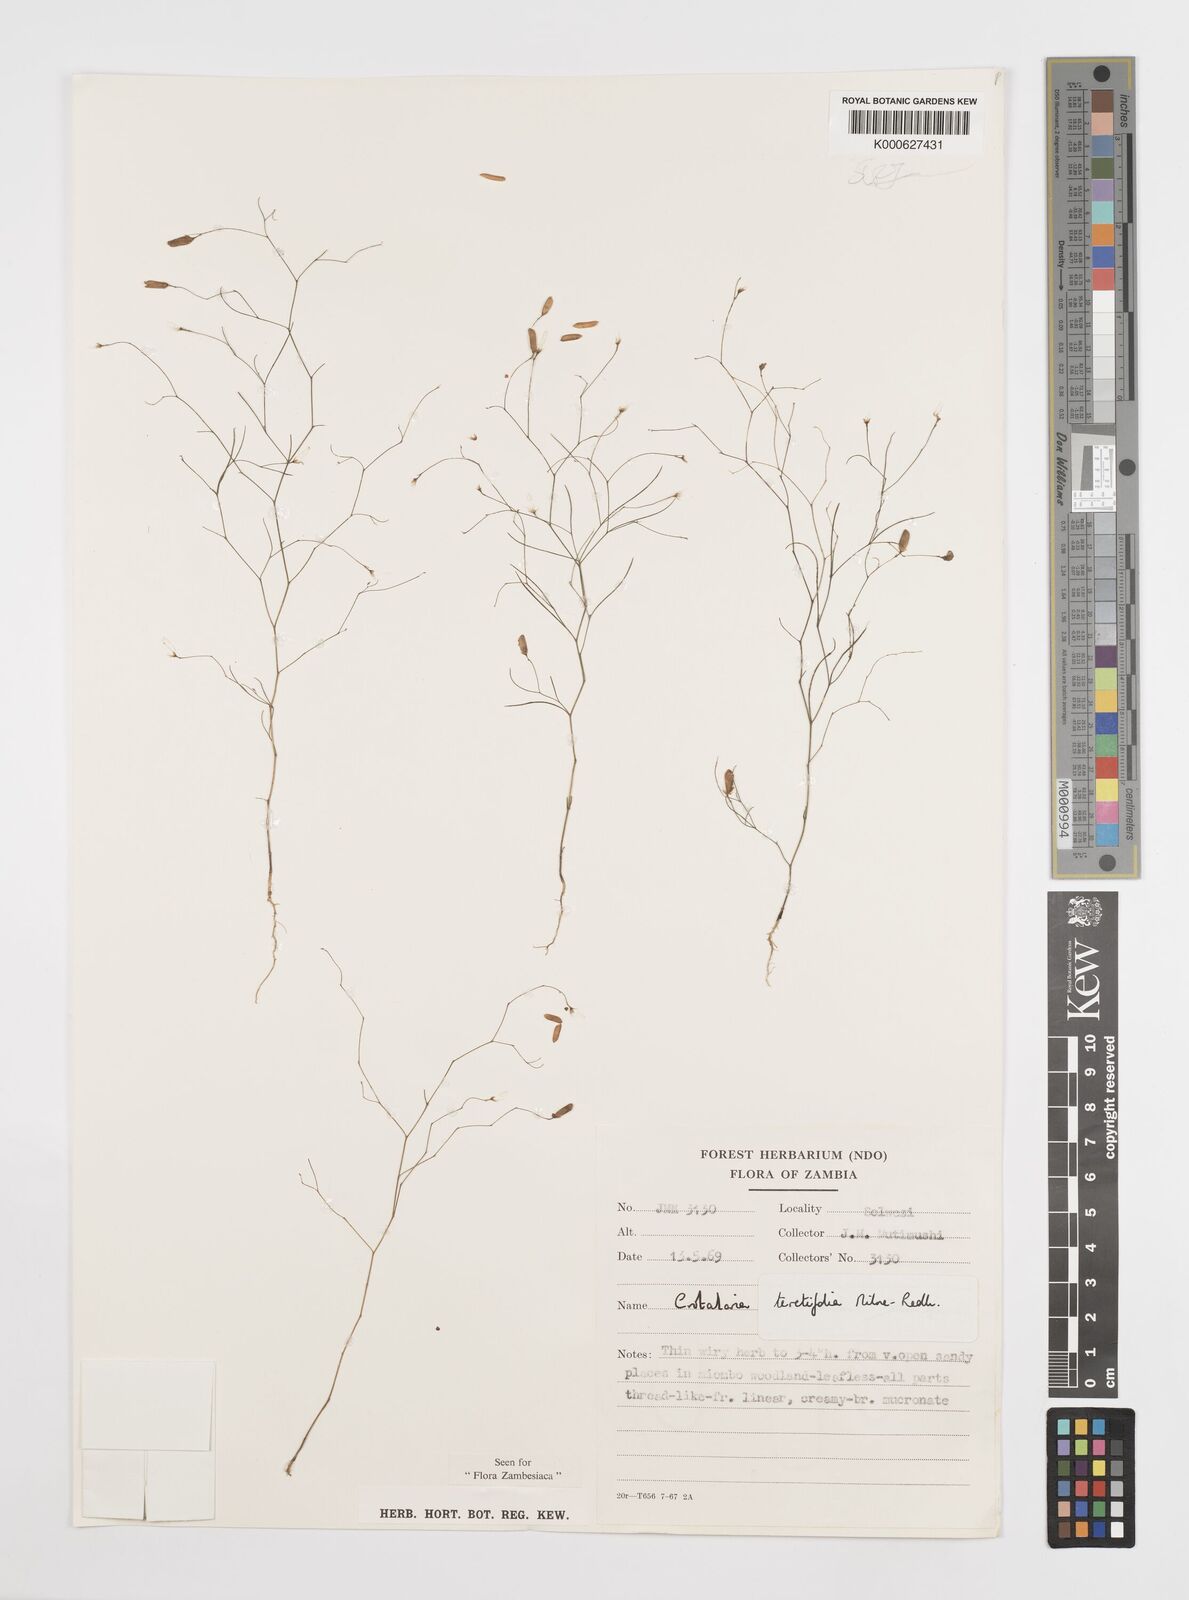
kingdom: Plantae
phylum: Tracheophyta
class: Magnoliopsida
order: Fabales
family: Fabaceae
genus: Crotalaria
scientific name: Crotalaria teretifolia
